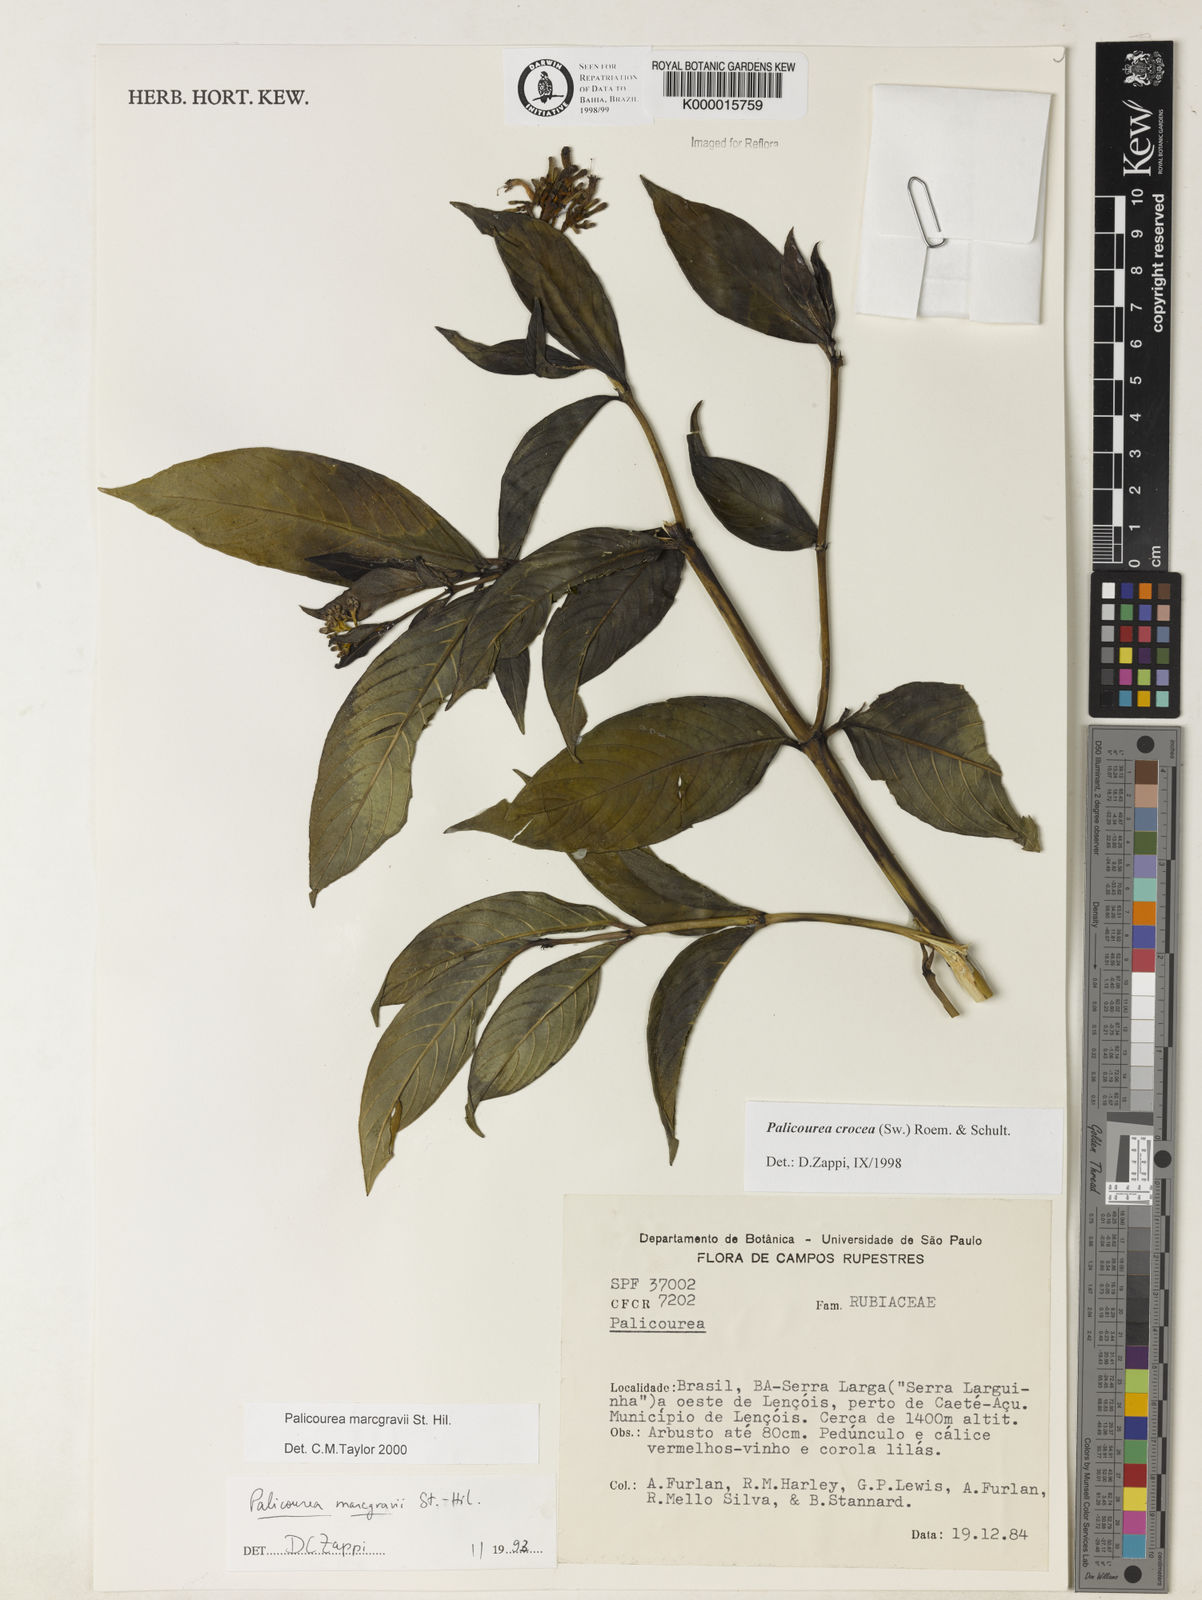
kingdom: Plantae
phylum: Tracheophyta
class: Magnoliopsida
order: Gentianales
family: Rubiaceae
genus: Palicourea
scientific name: Palicourea marcgravii
